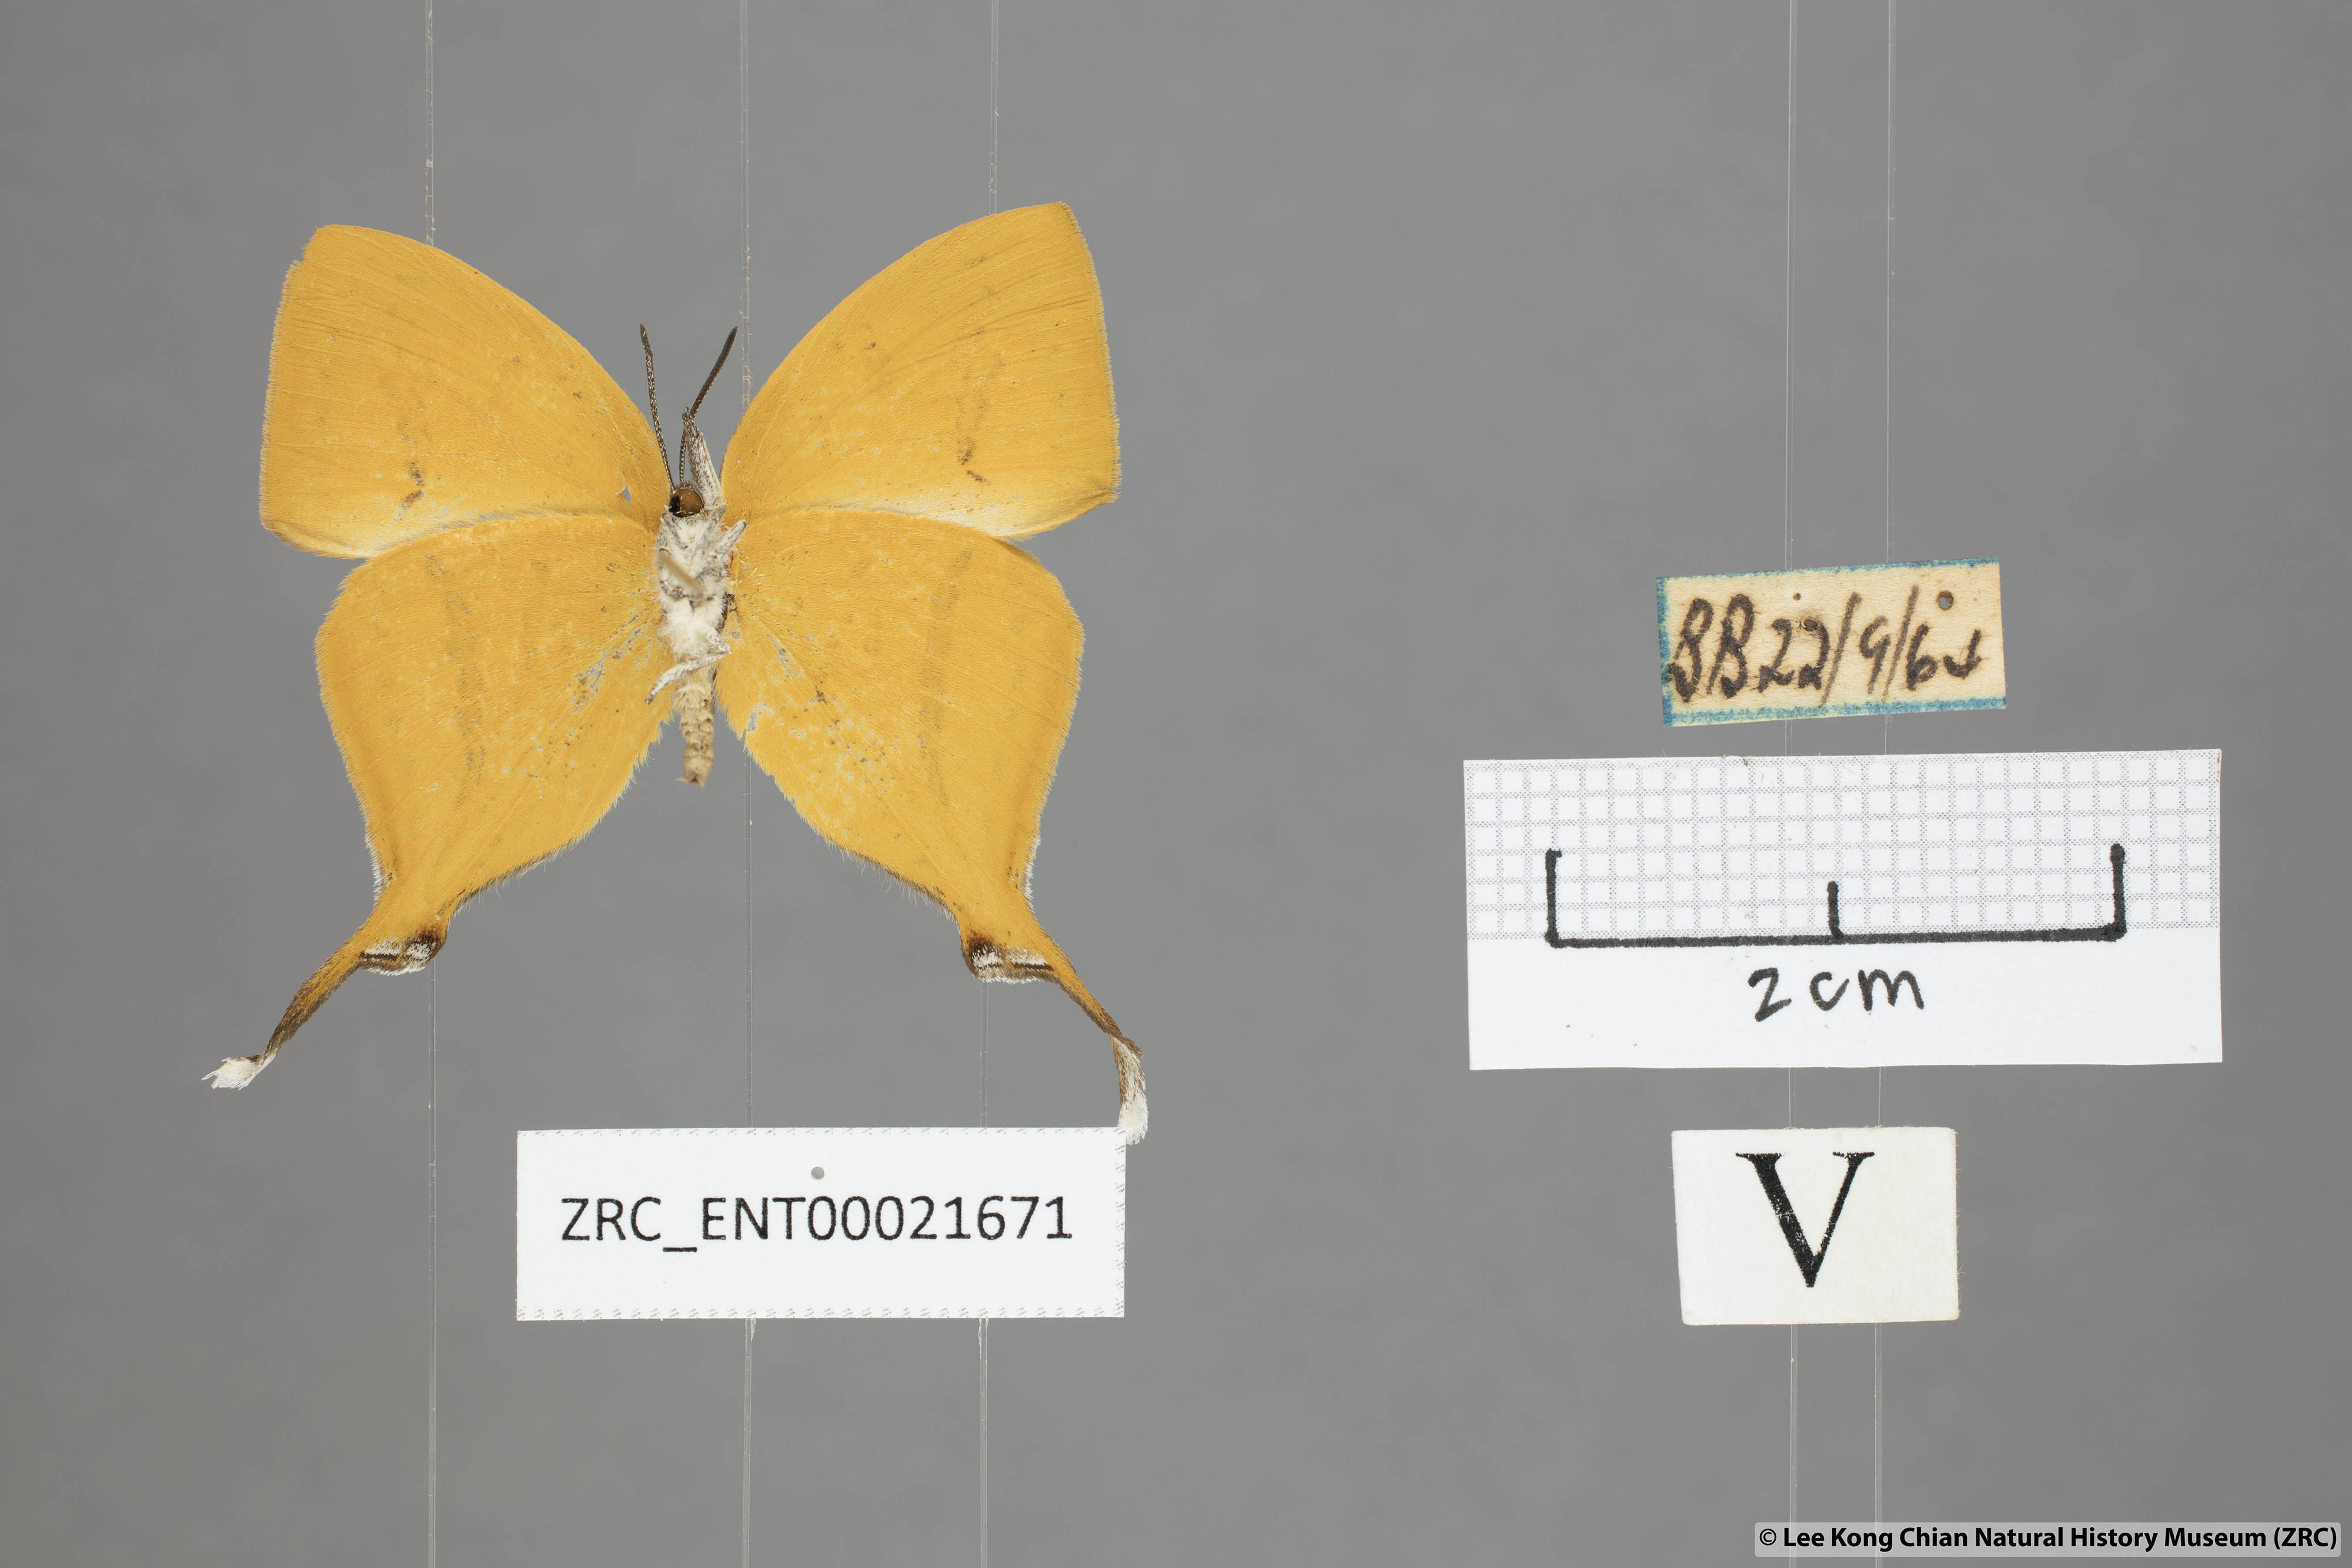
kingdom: Animalia
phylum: Arthropoda
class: Insecta
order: Lepidoptera
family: Lycaenidae
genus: Loxura
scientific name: Loxura atymnus
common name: Common yamfly
